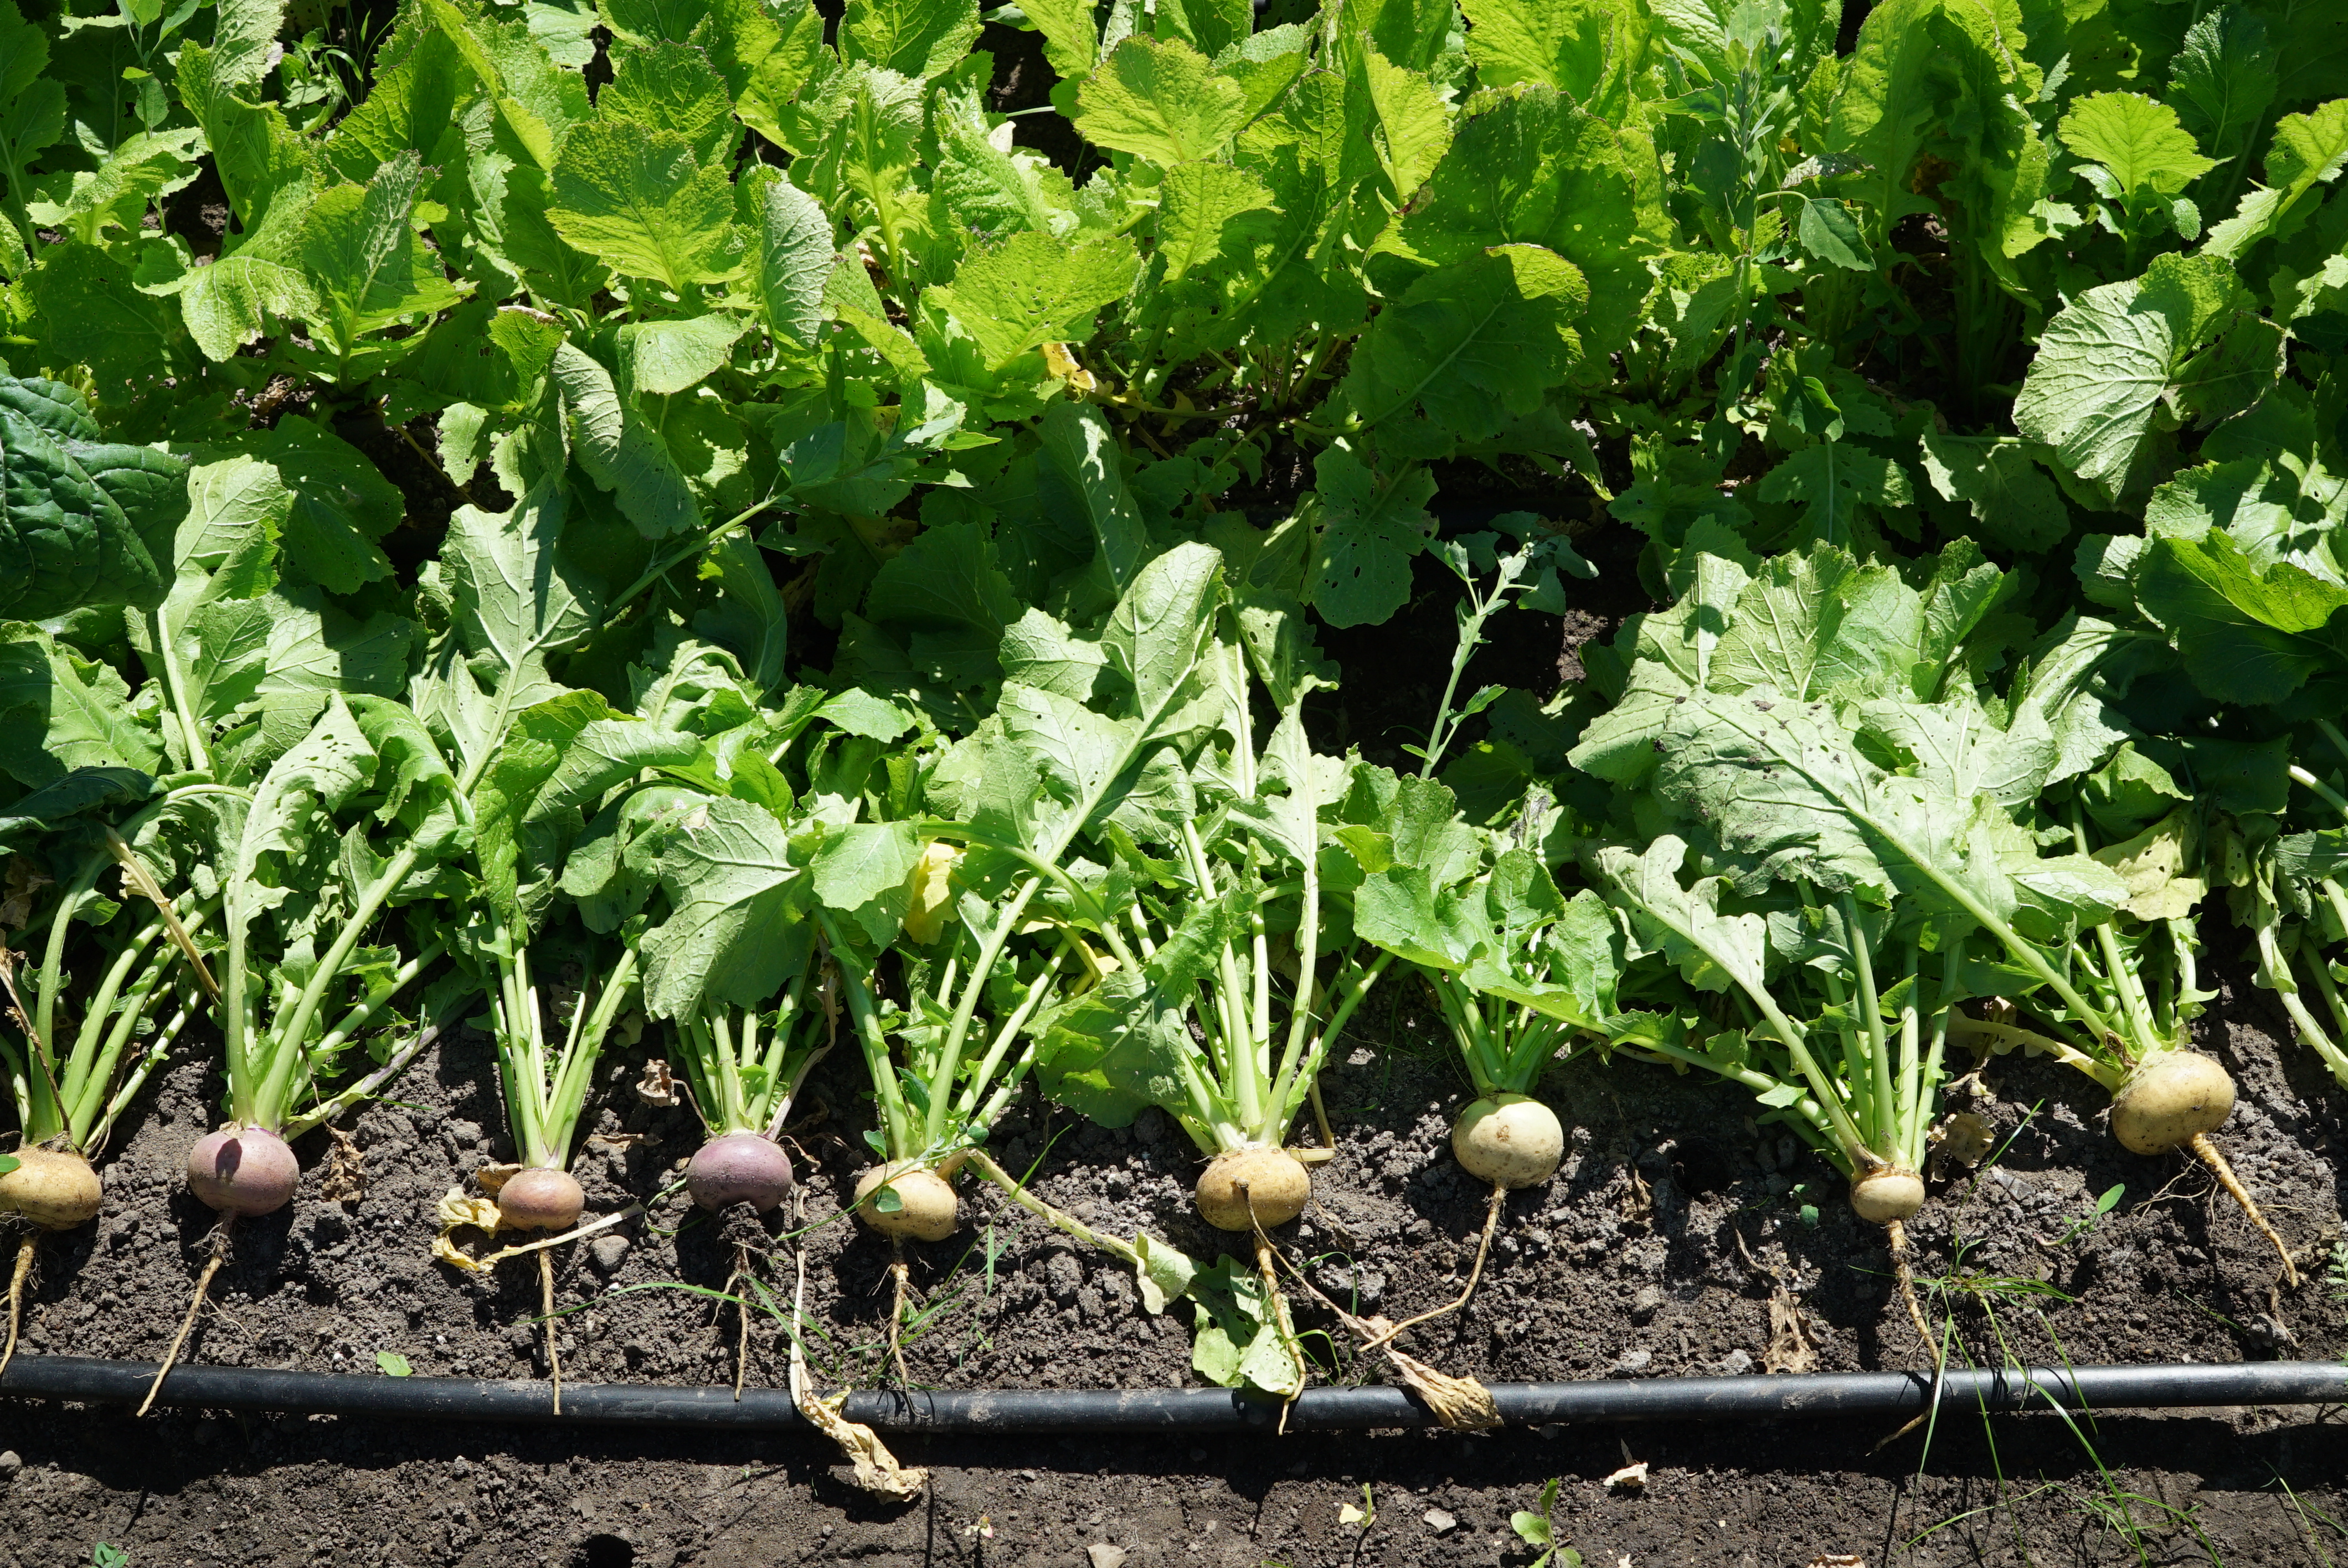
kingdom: Plantae
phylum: Tracheophyta
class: Magnoliopsida
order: Brassicales
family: Brassicaceae
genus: Brassica
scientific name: Brassica rapa
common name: Field mustard
